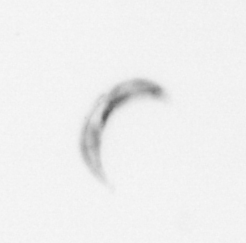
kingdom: Chromista
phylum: Ochrophyta
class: Bacillariophyceae
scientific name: Bacillariophyceae
